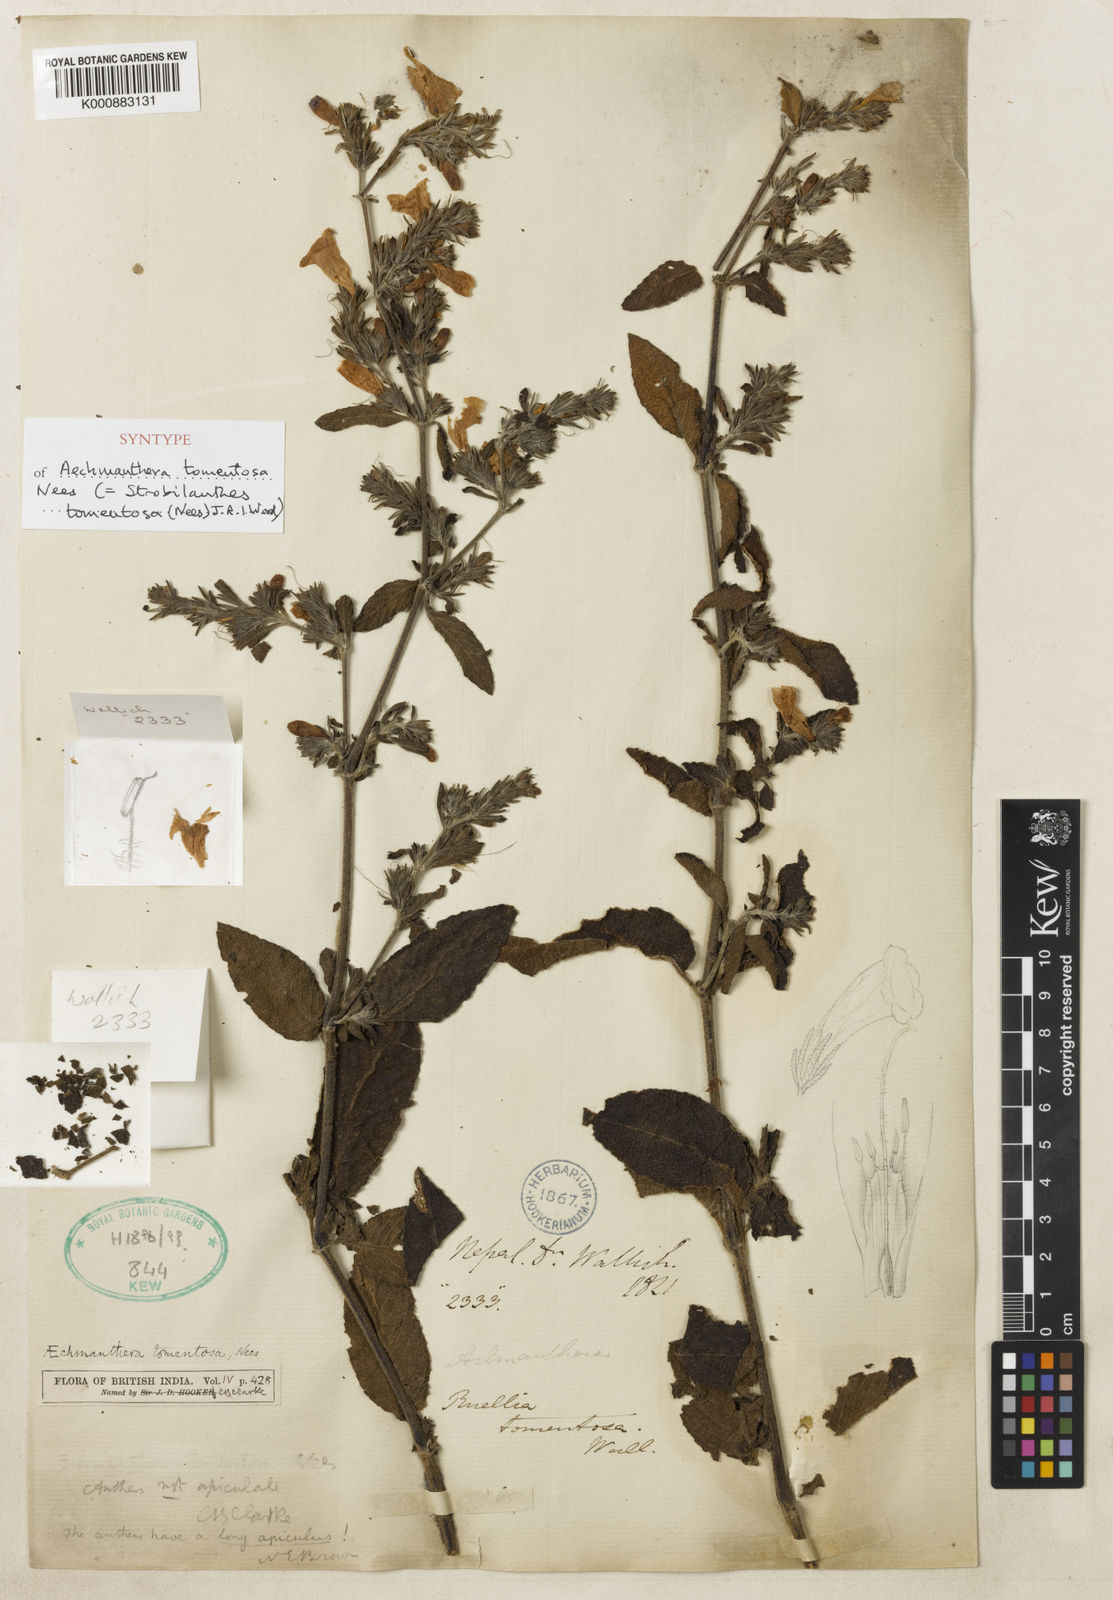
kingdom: Plantae
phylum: Tracheophyta
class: Magnoliopsida
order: Lamiales
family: Acanthaceae
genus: Strobilanthes
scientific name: Strobilanthes tomentosa
